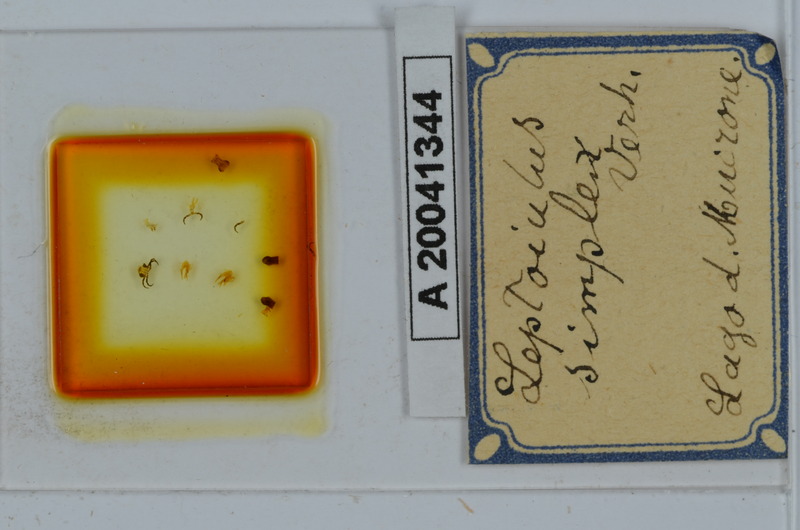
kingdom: Animalia
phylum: Arthropoda
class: Diplopoda
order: Julida
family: Julidae
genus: Leptoiulus
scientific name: Leptoiulus simplex
